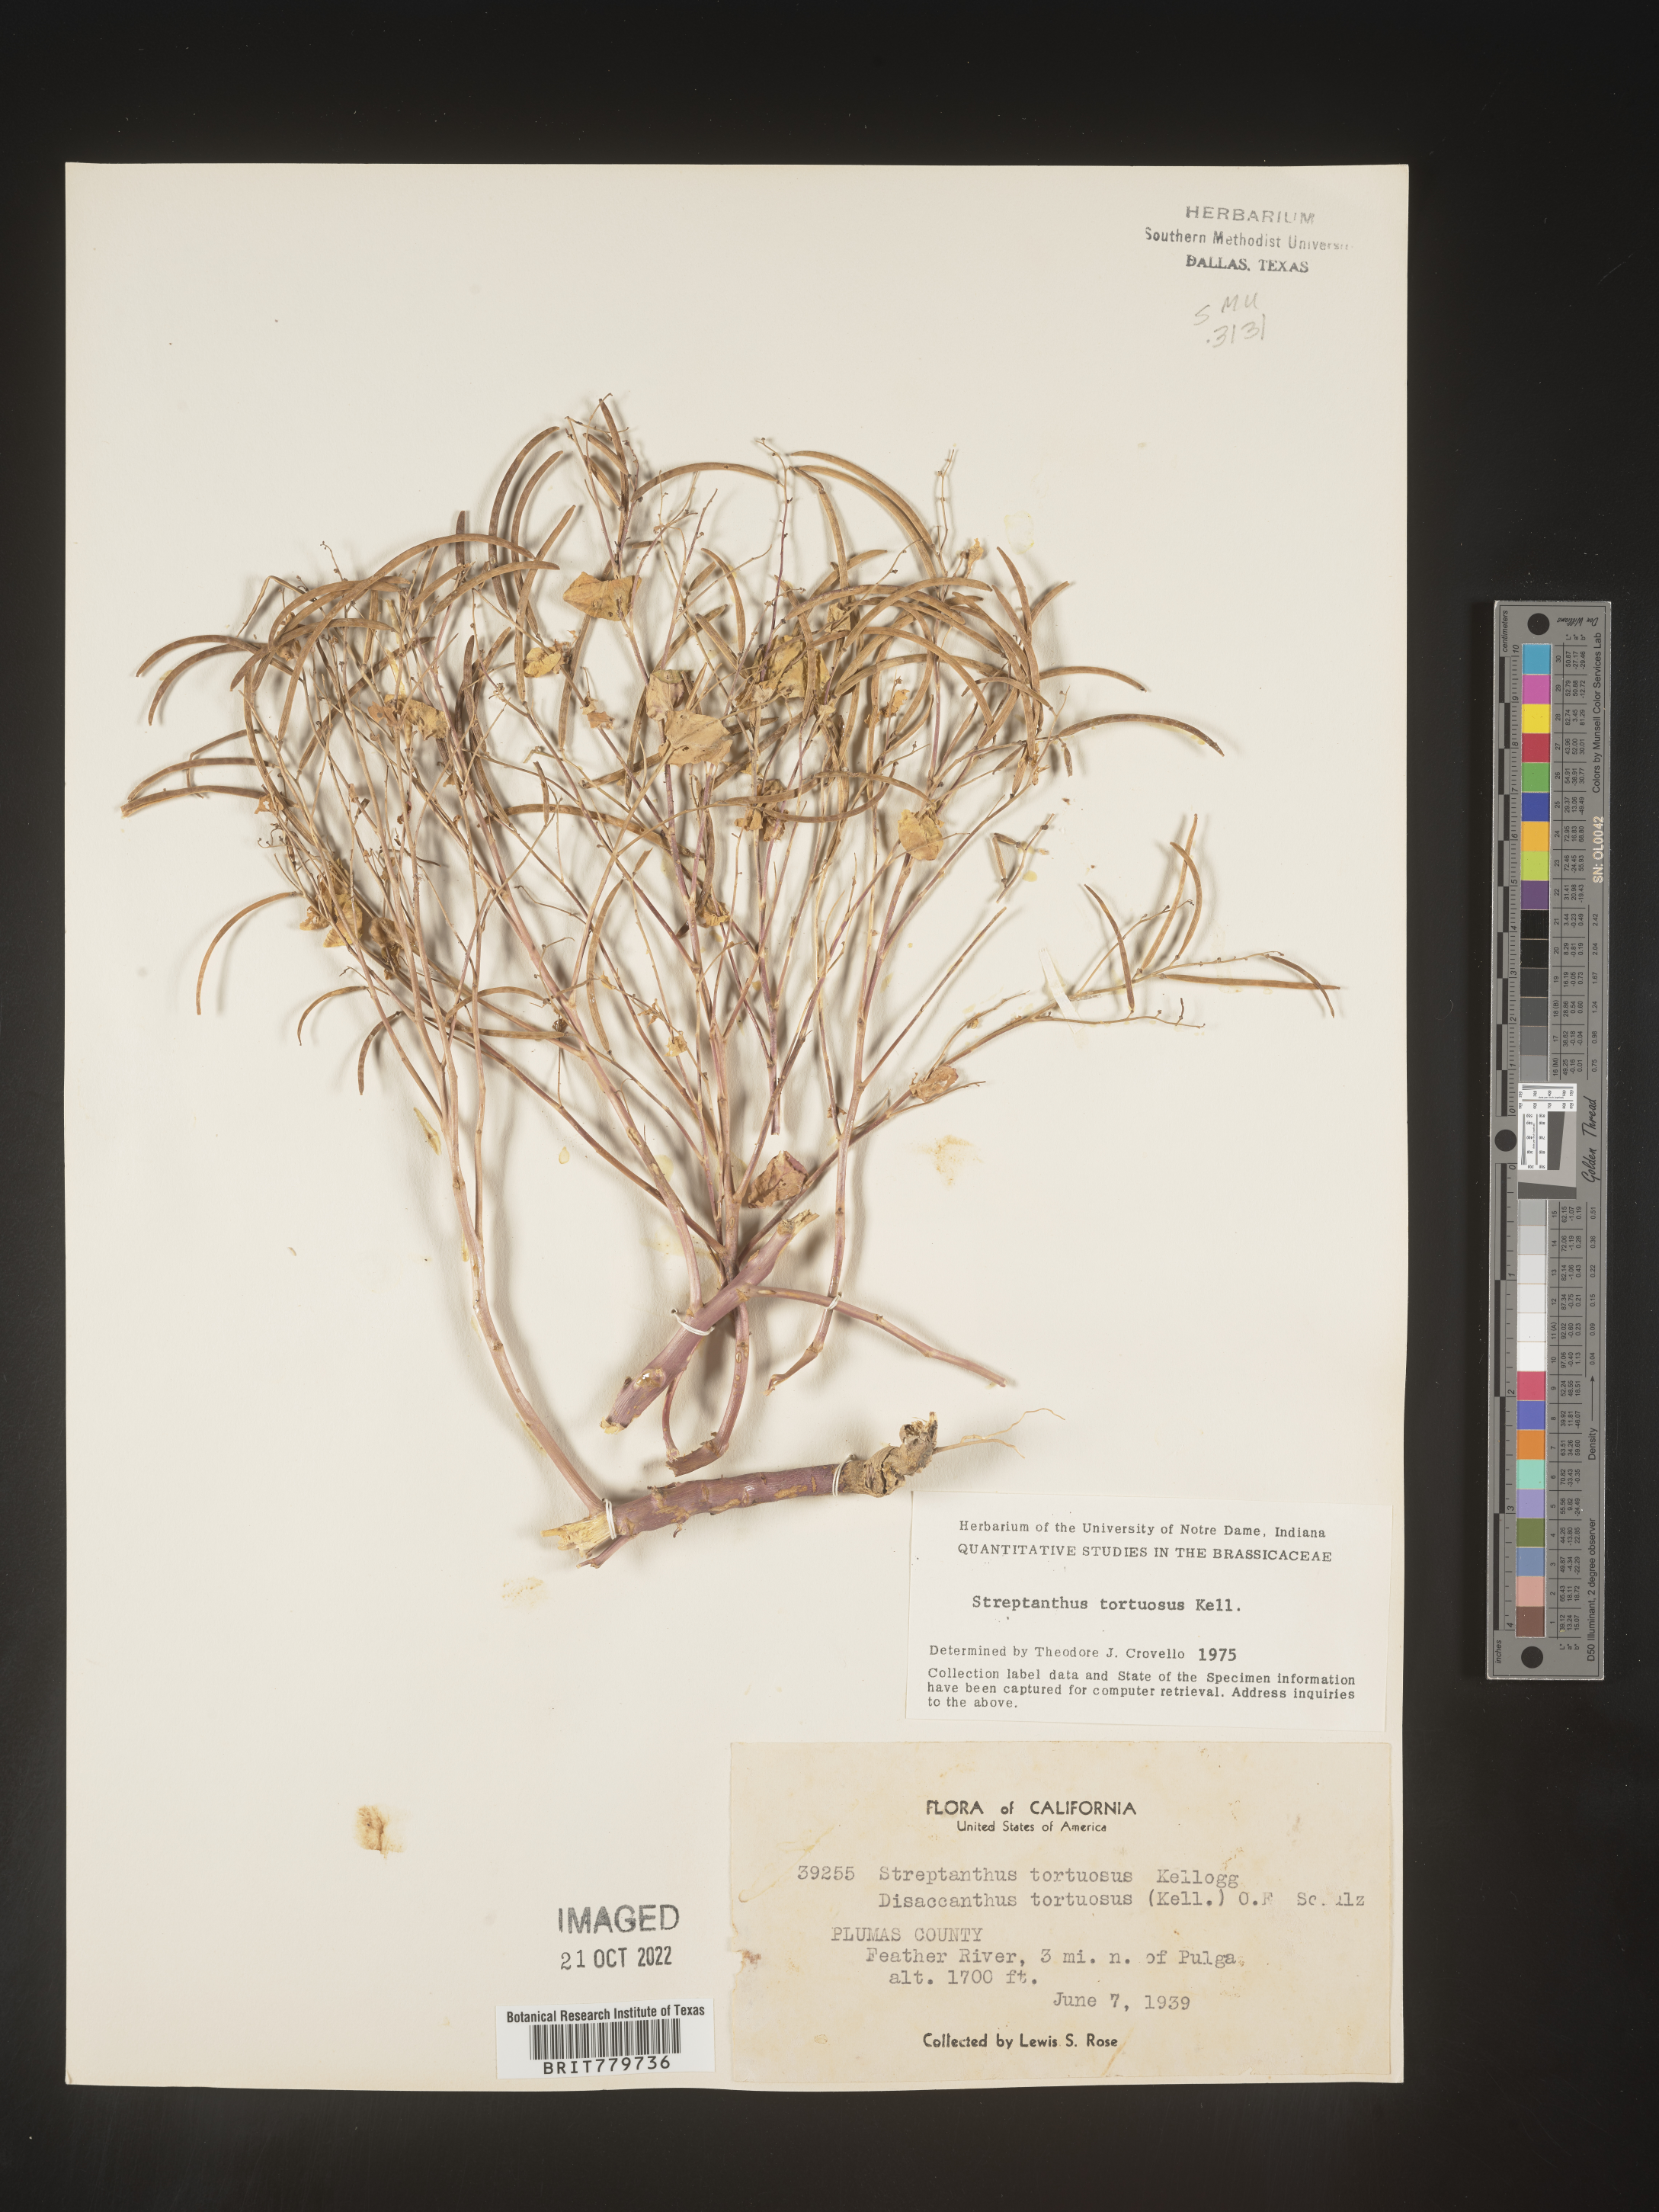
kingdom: Plantae
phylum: Tracheophyta
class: Magnoliopsida
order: Brassicales
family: Brassicaceae
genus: Streptanthus
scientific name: Streptanthus
